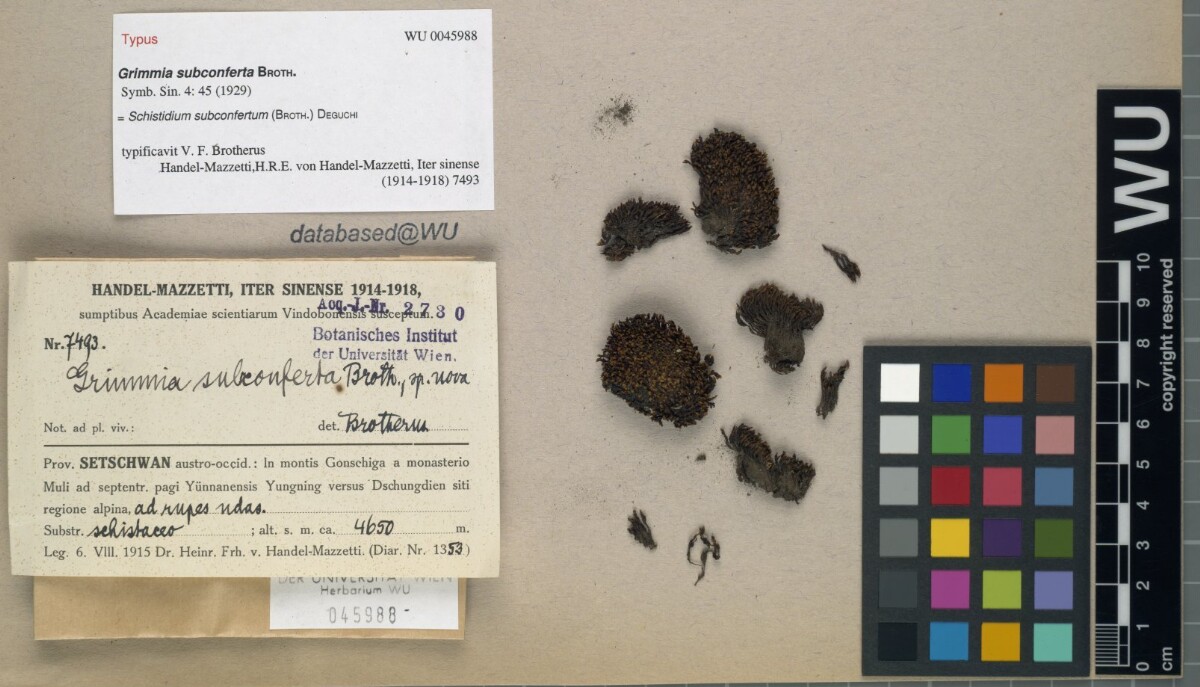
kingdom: Plantae
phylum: Bryophyta
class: Bryopsida
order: Grimmiales
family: Grimmiaceae
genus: Schistidium
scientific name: Schistidium subconfertum
